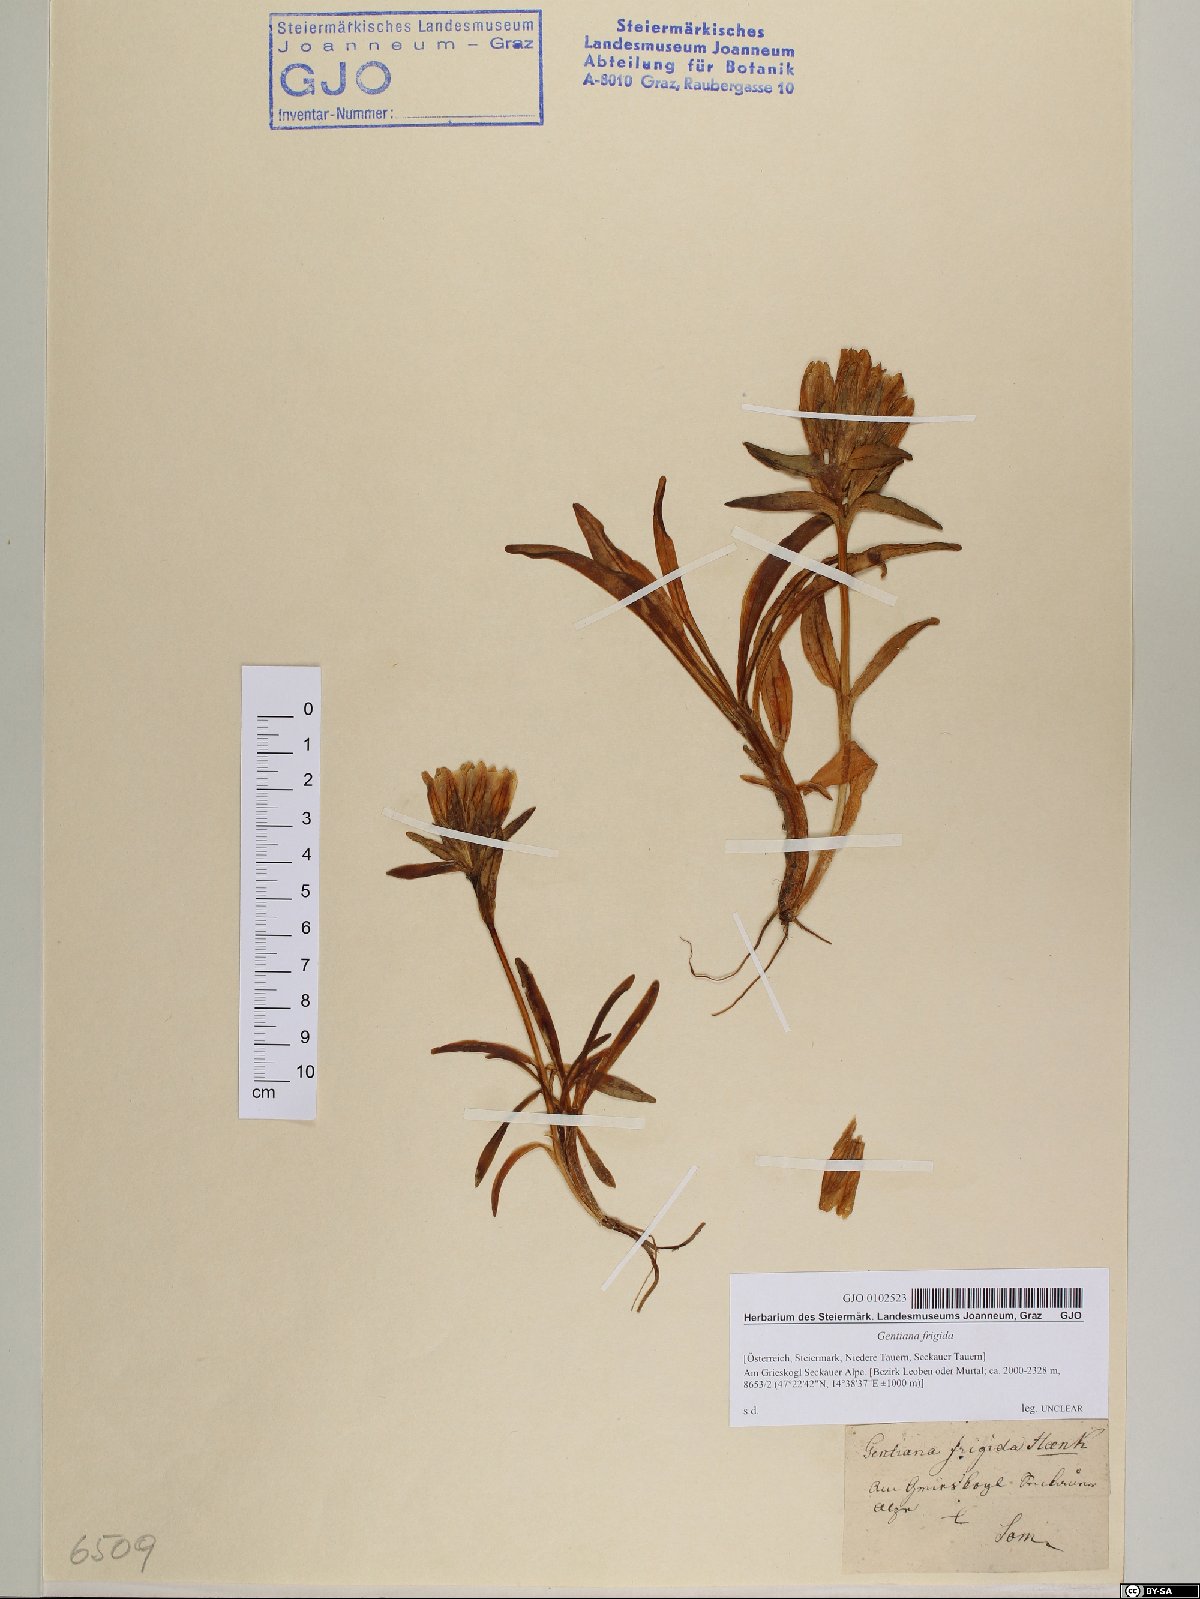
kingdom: Plantae
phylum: Tracheophyta
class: Magnoliopsida
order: Gentianales
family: Gentianaceae
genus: Gentiana
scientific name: Gentiana frigida
